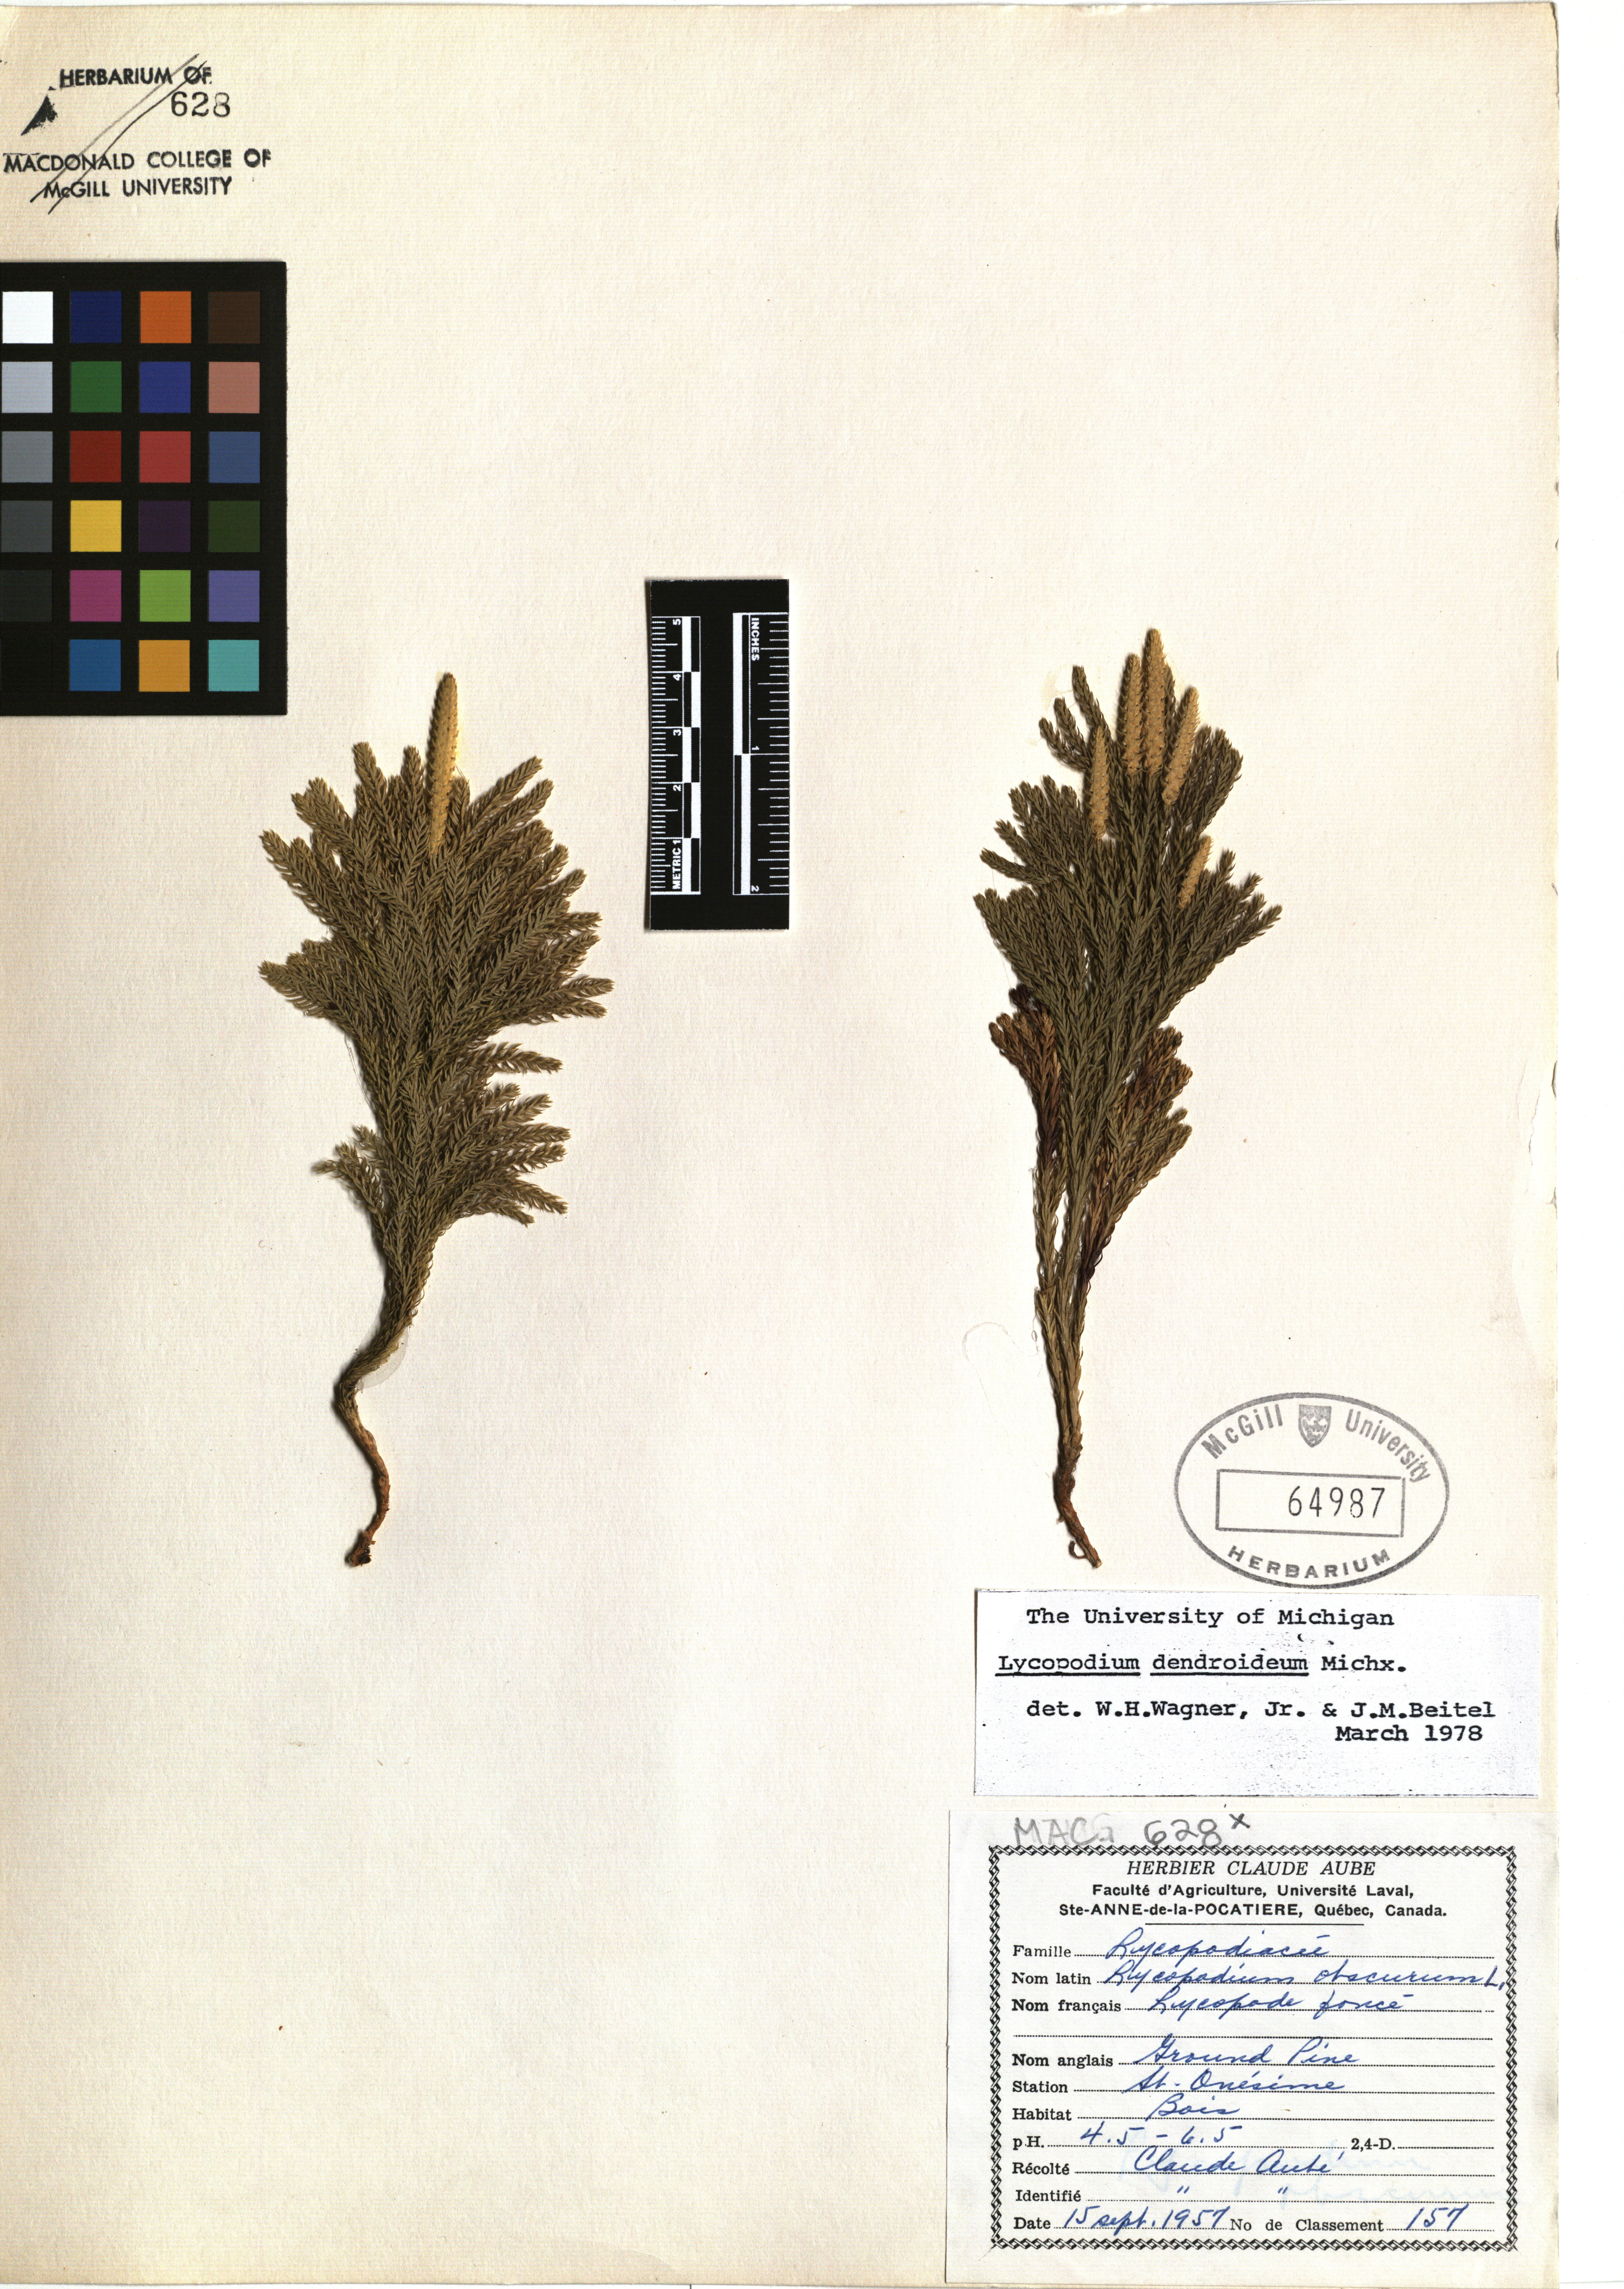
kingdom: Plantae
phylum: Tracheophyta
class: Lycopodiopsida
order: Lycopodiales
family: Lycopodiaceae
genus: Dendrolycopodium
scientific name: Dendrolycopodium dendroideum
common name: Northern tree-clubmoss
